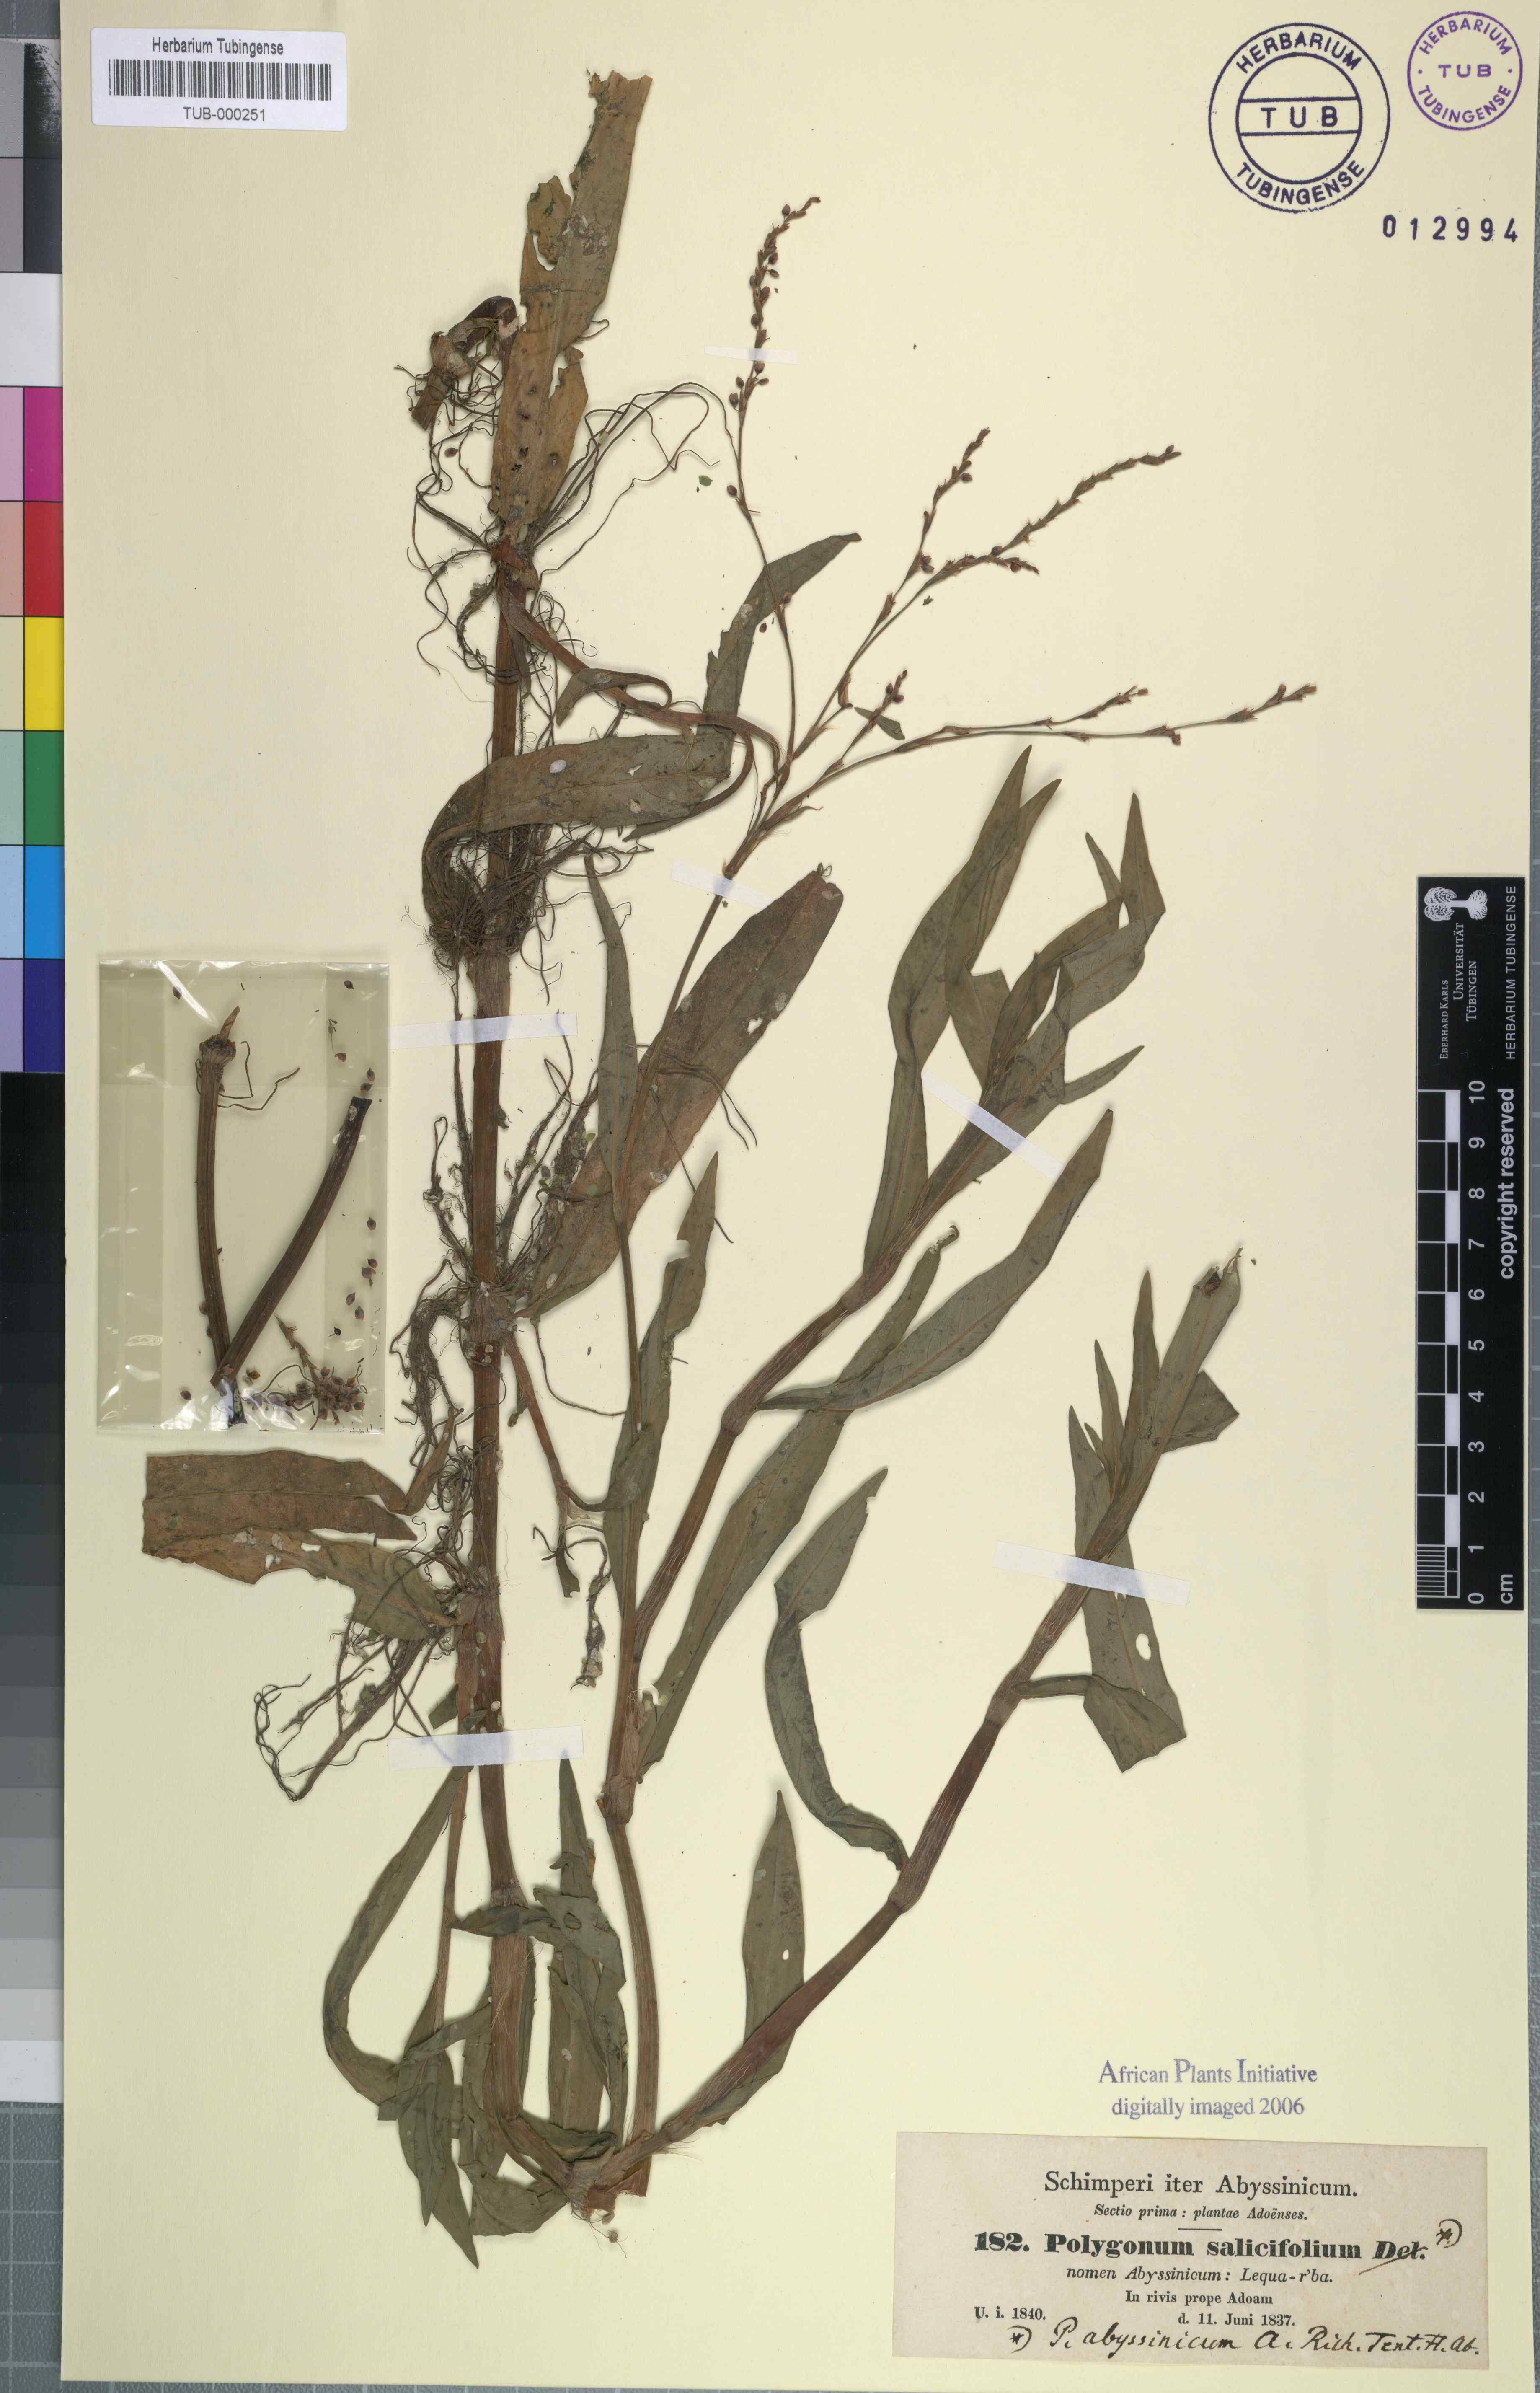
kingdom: Plantae
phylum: Tracheophyta
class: Magnoliopsida
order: Caryophyllales
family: Polygonaceae
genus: Persicaria
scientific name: Persicaria salicifolia
